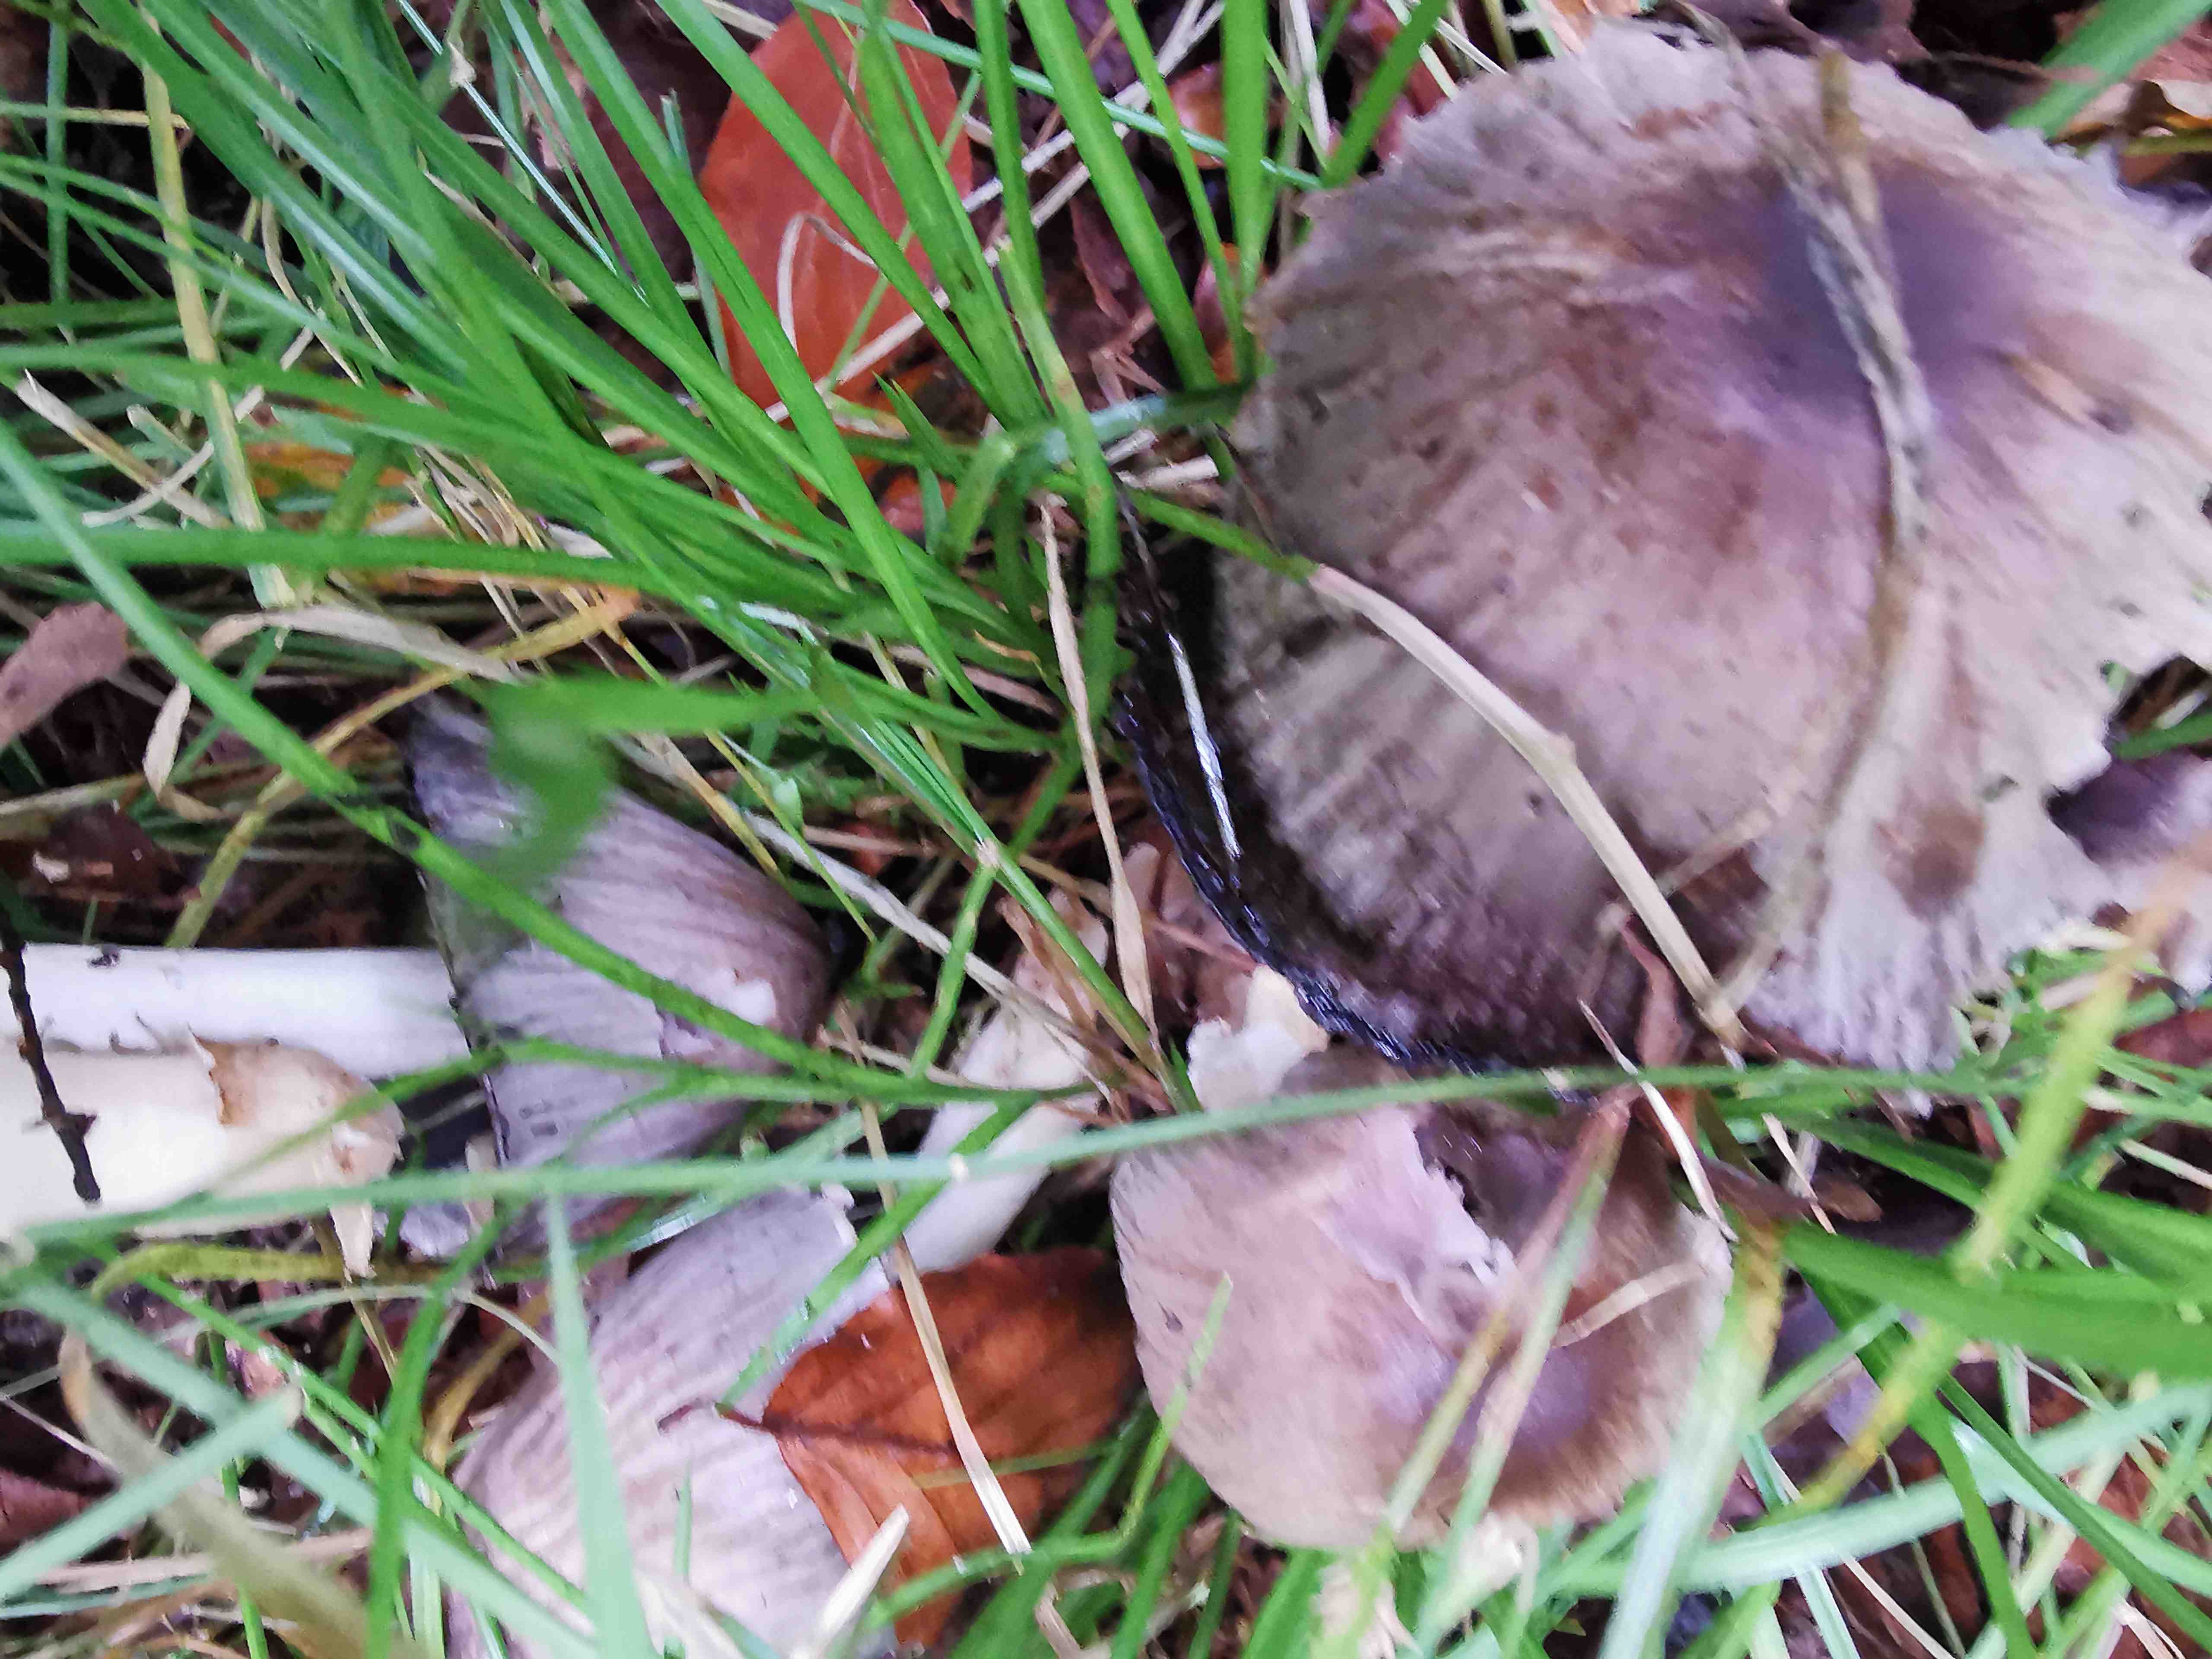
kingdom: Fungi
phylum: Basidiomycota
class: Agaricomycetes
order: Agaricales
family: Psathyrellaceae
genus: Coprinopsis
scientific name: Coprinopsis atramentaria
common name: almindelig blækhat
